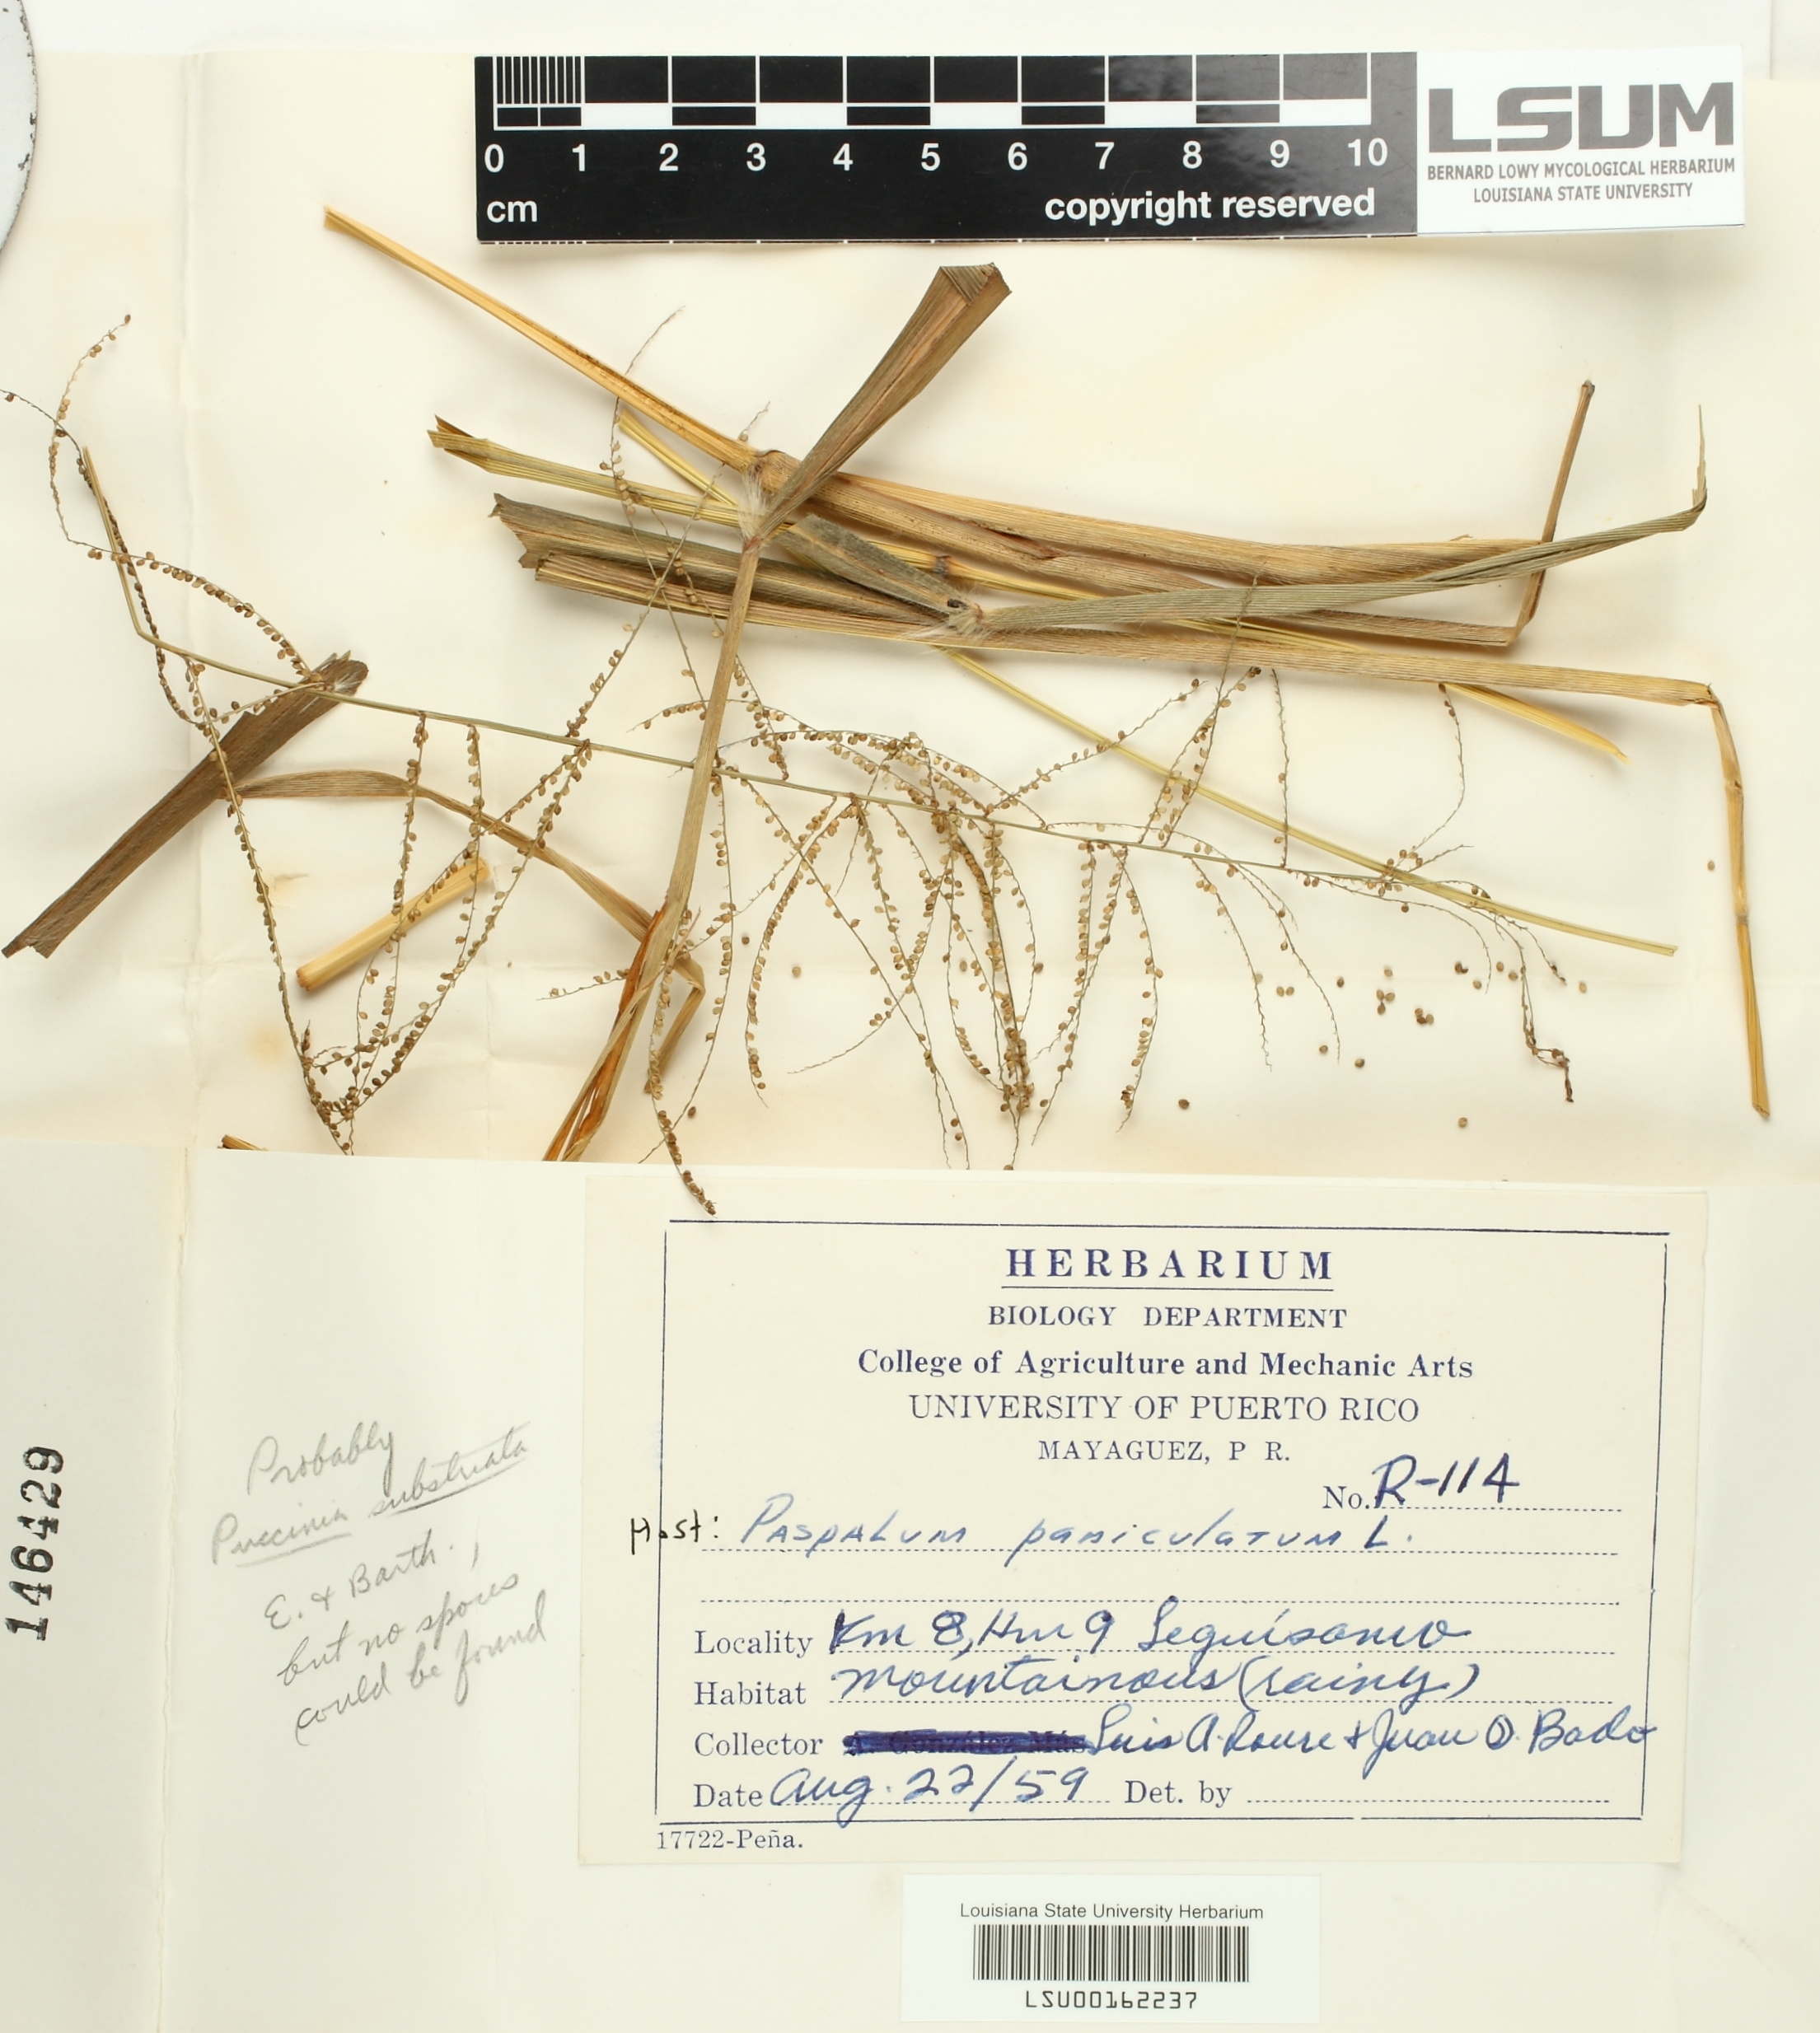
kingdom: Fungi
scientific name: Fungi
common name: Fungi
